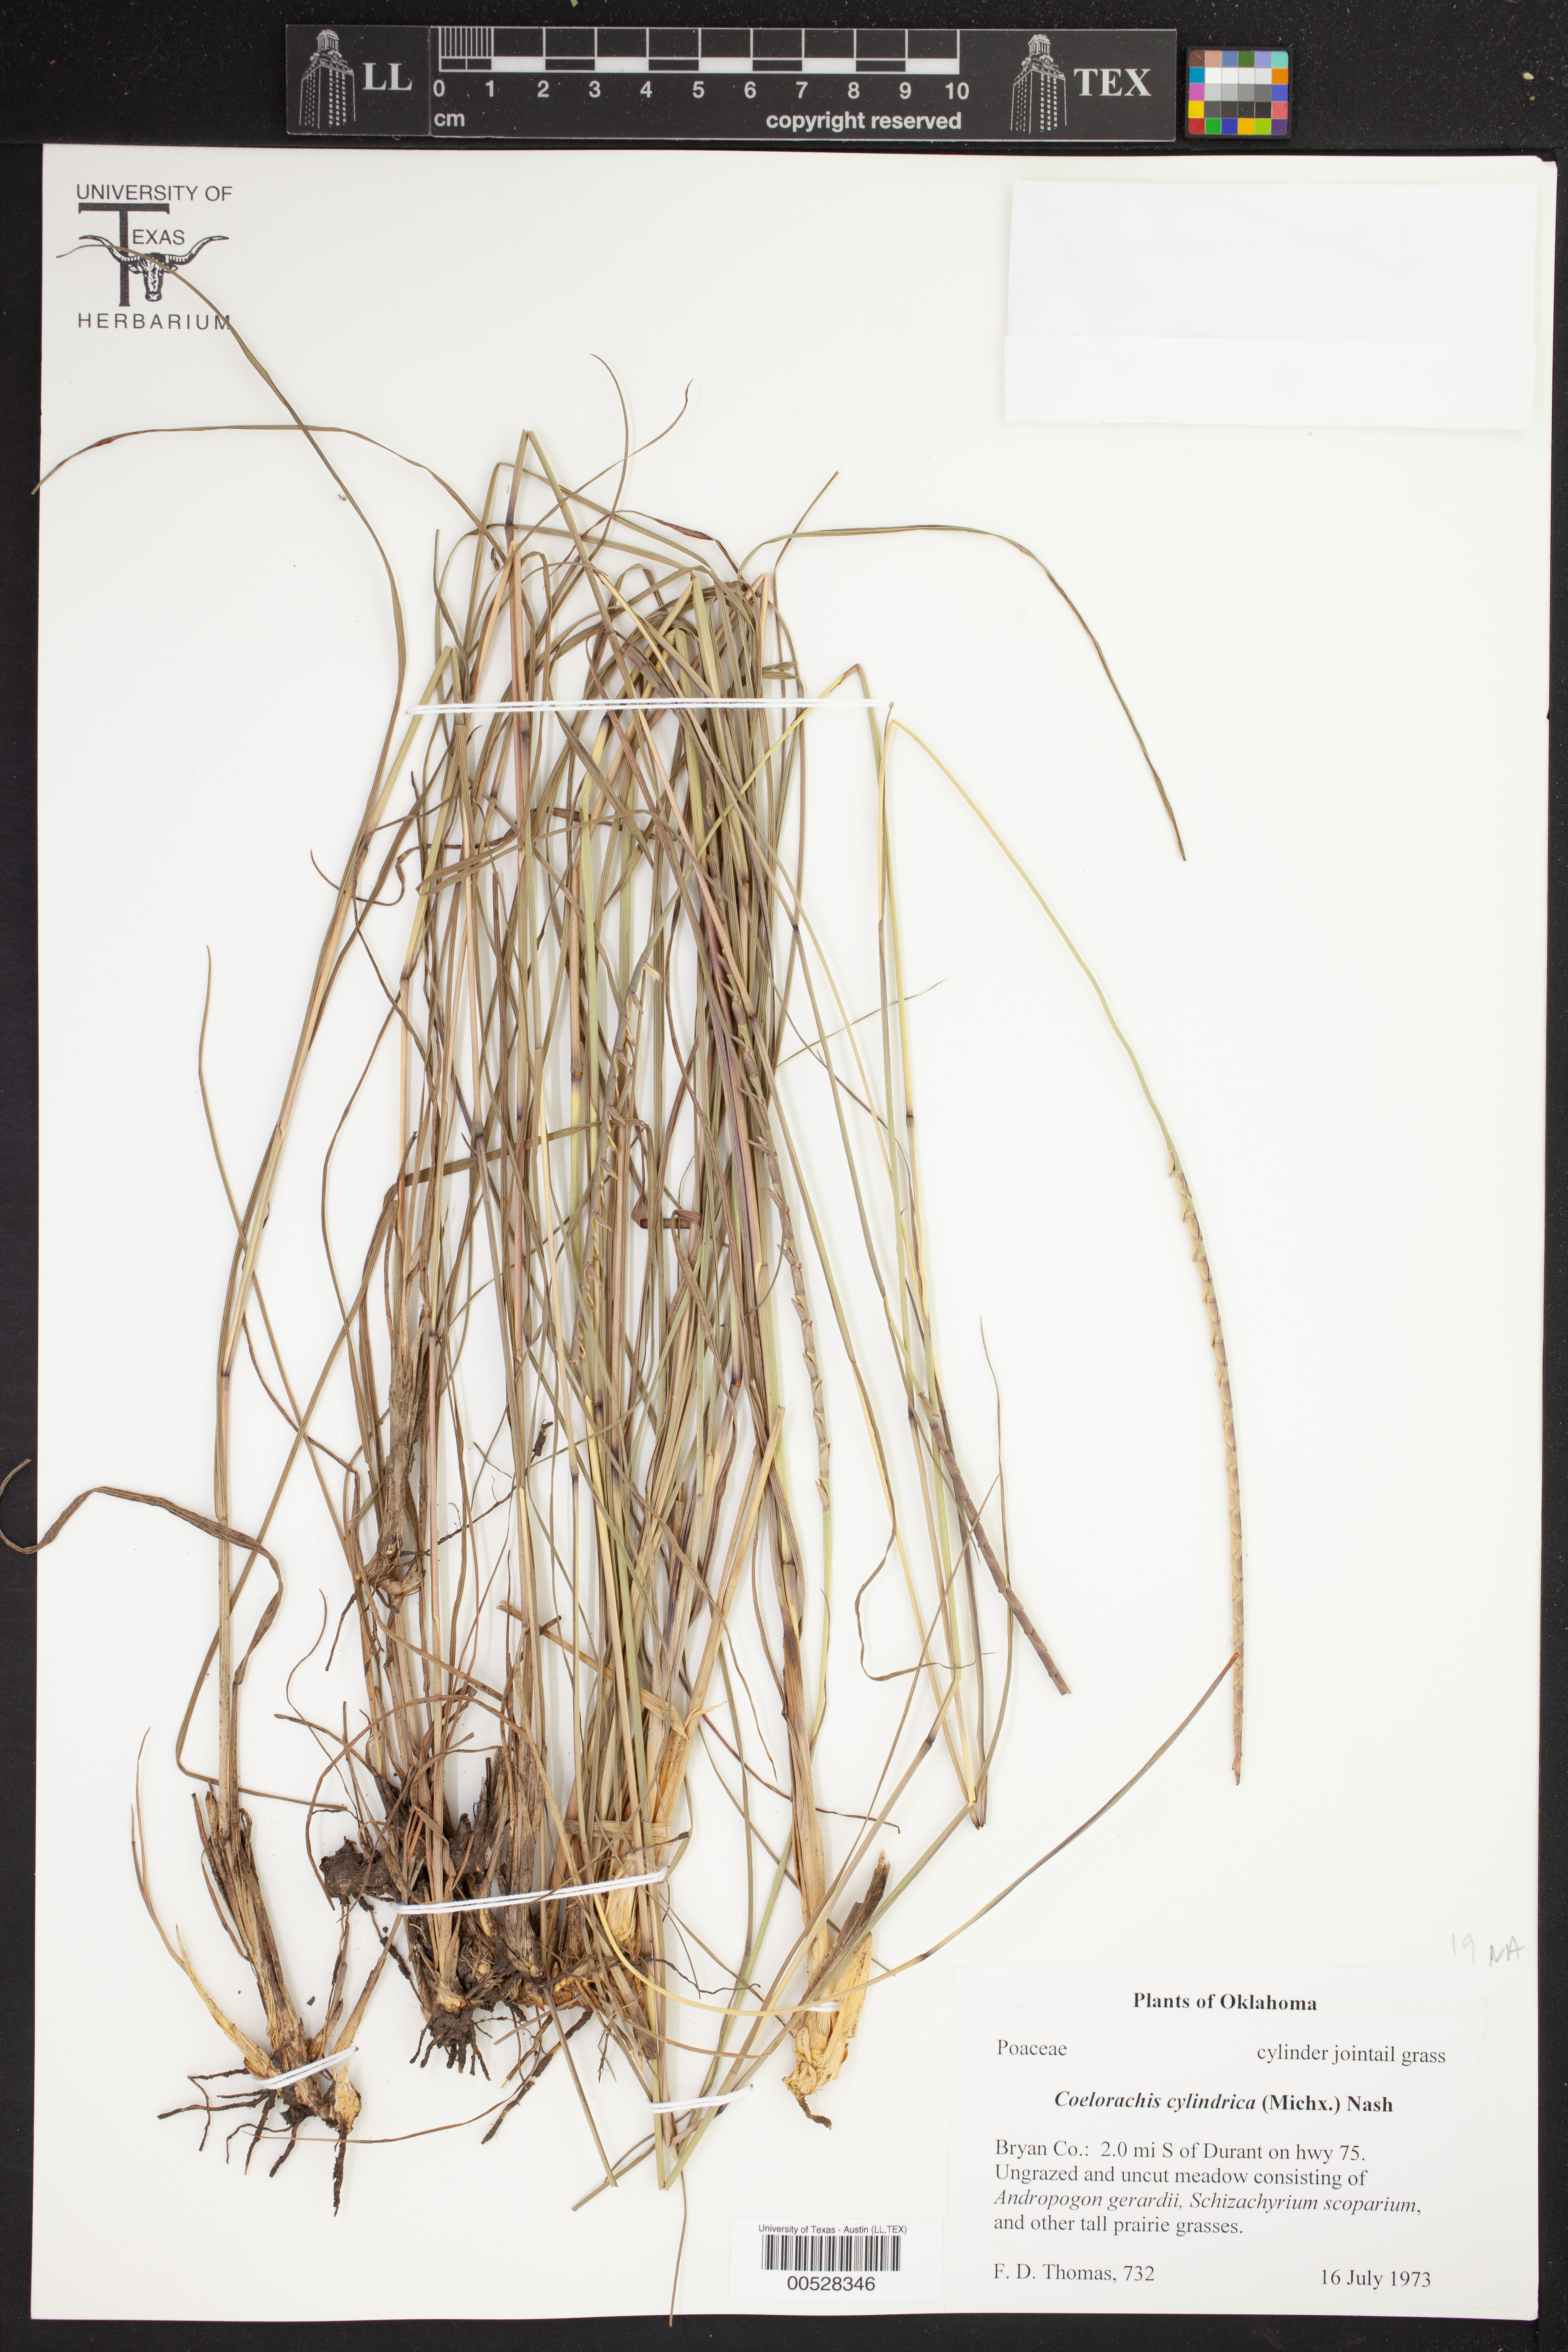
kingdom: Plantae
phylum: Tracheophyta
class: Liliopsida
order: Poales
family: Poaceae
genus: Rottboellia
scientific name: Rottboellia campestris
